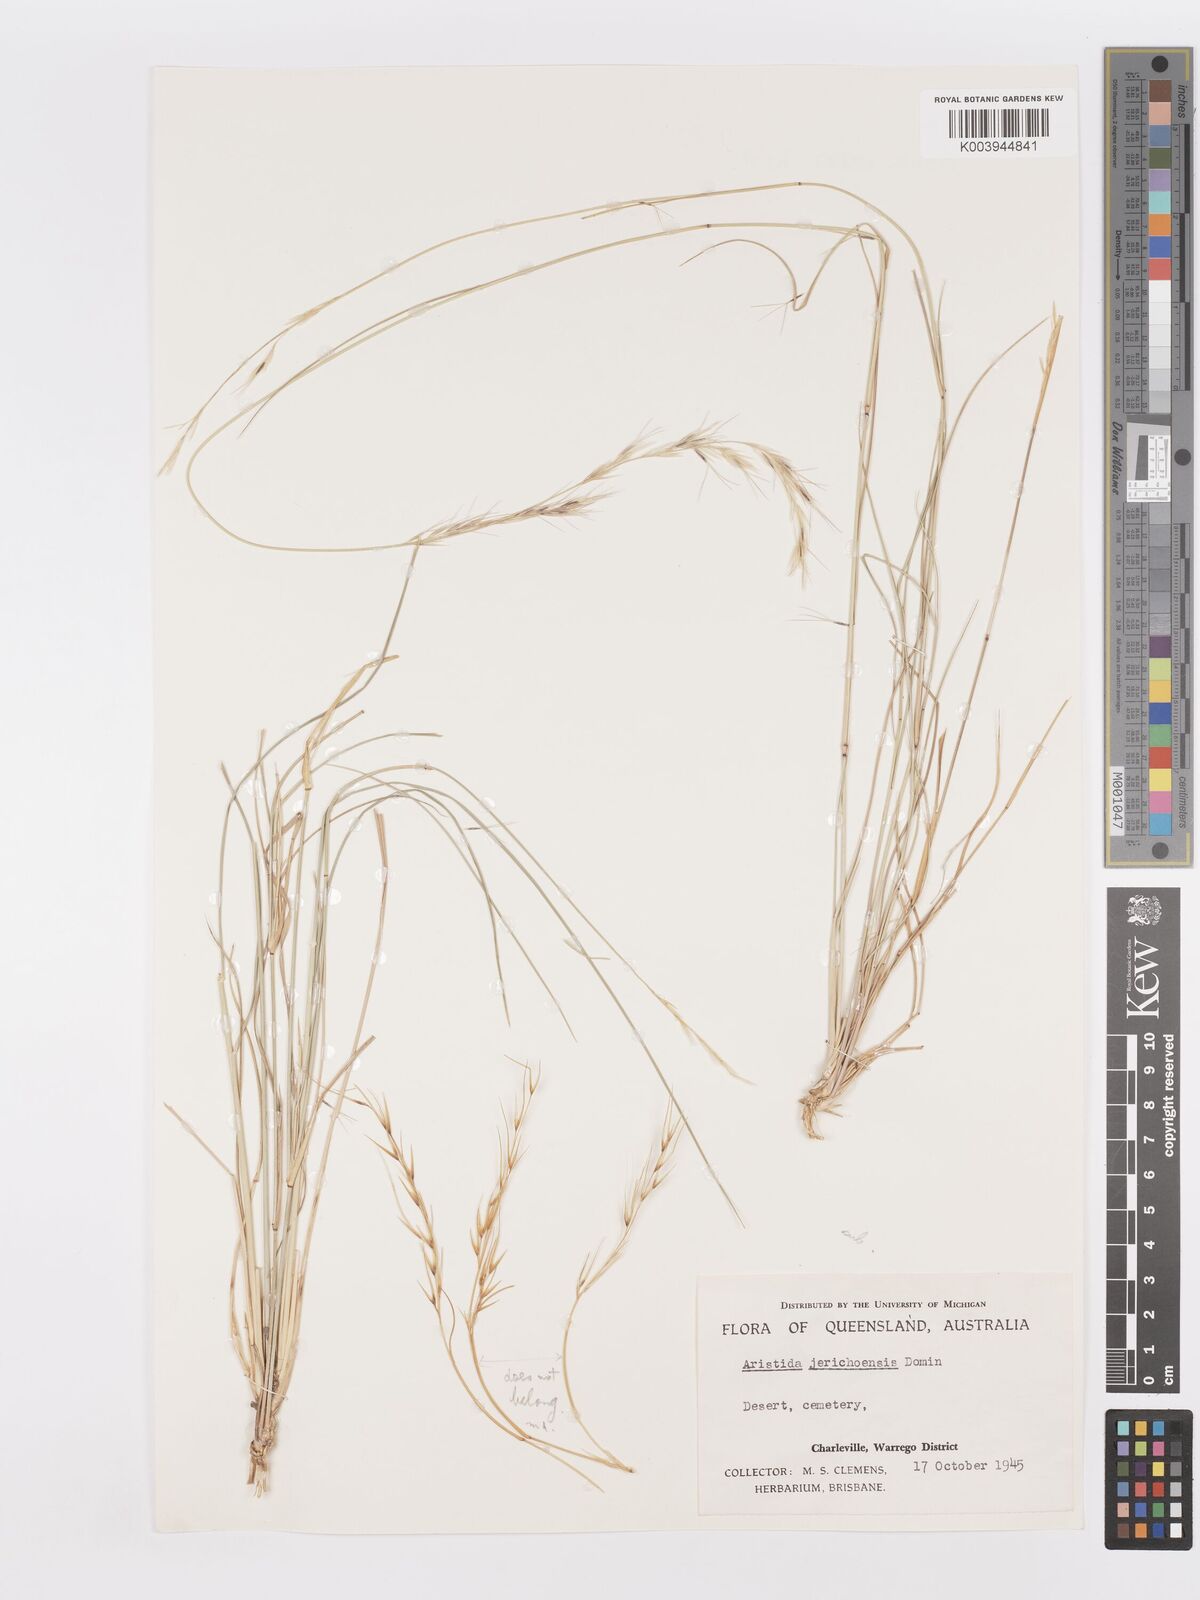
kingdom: Plantae
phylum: Tracheophyta
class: Liliopsida
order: Poales
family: Poaceae
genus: Aristida
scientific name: Aristida jerichoensis
